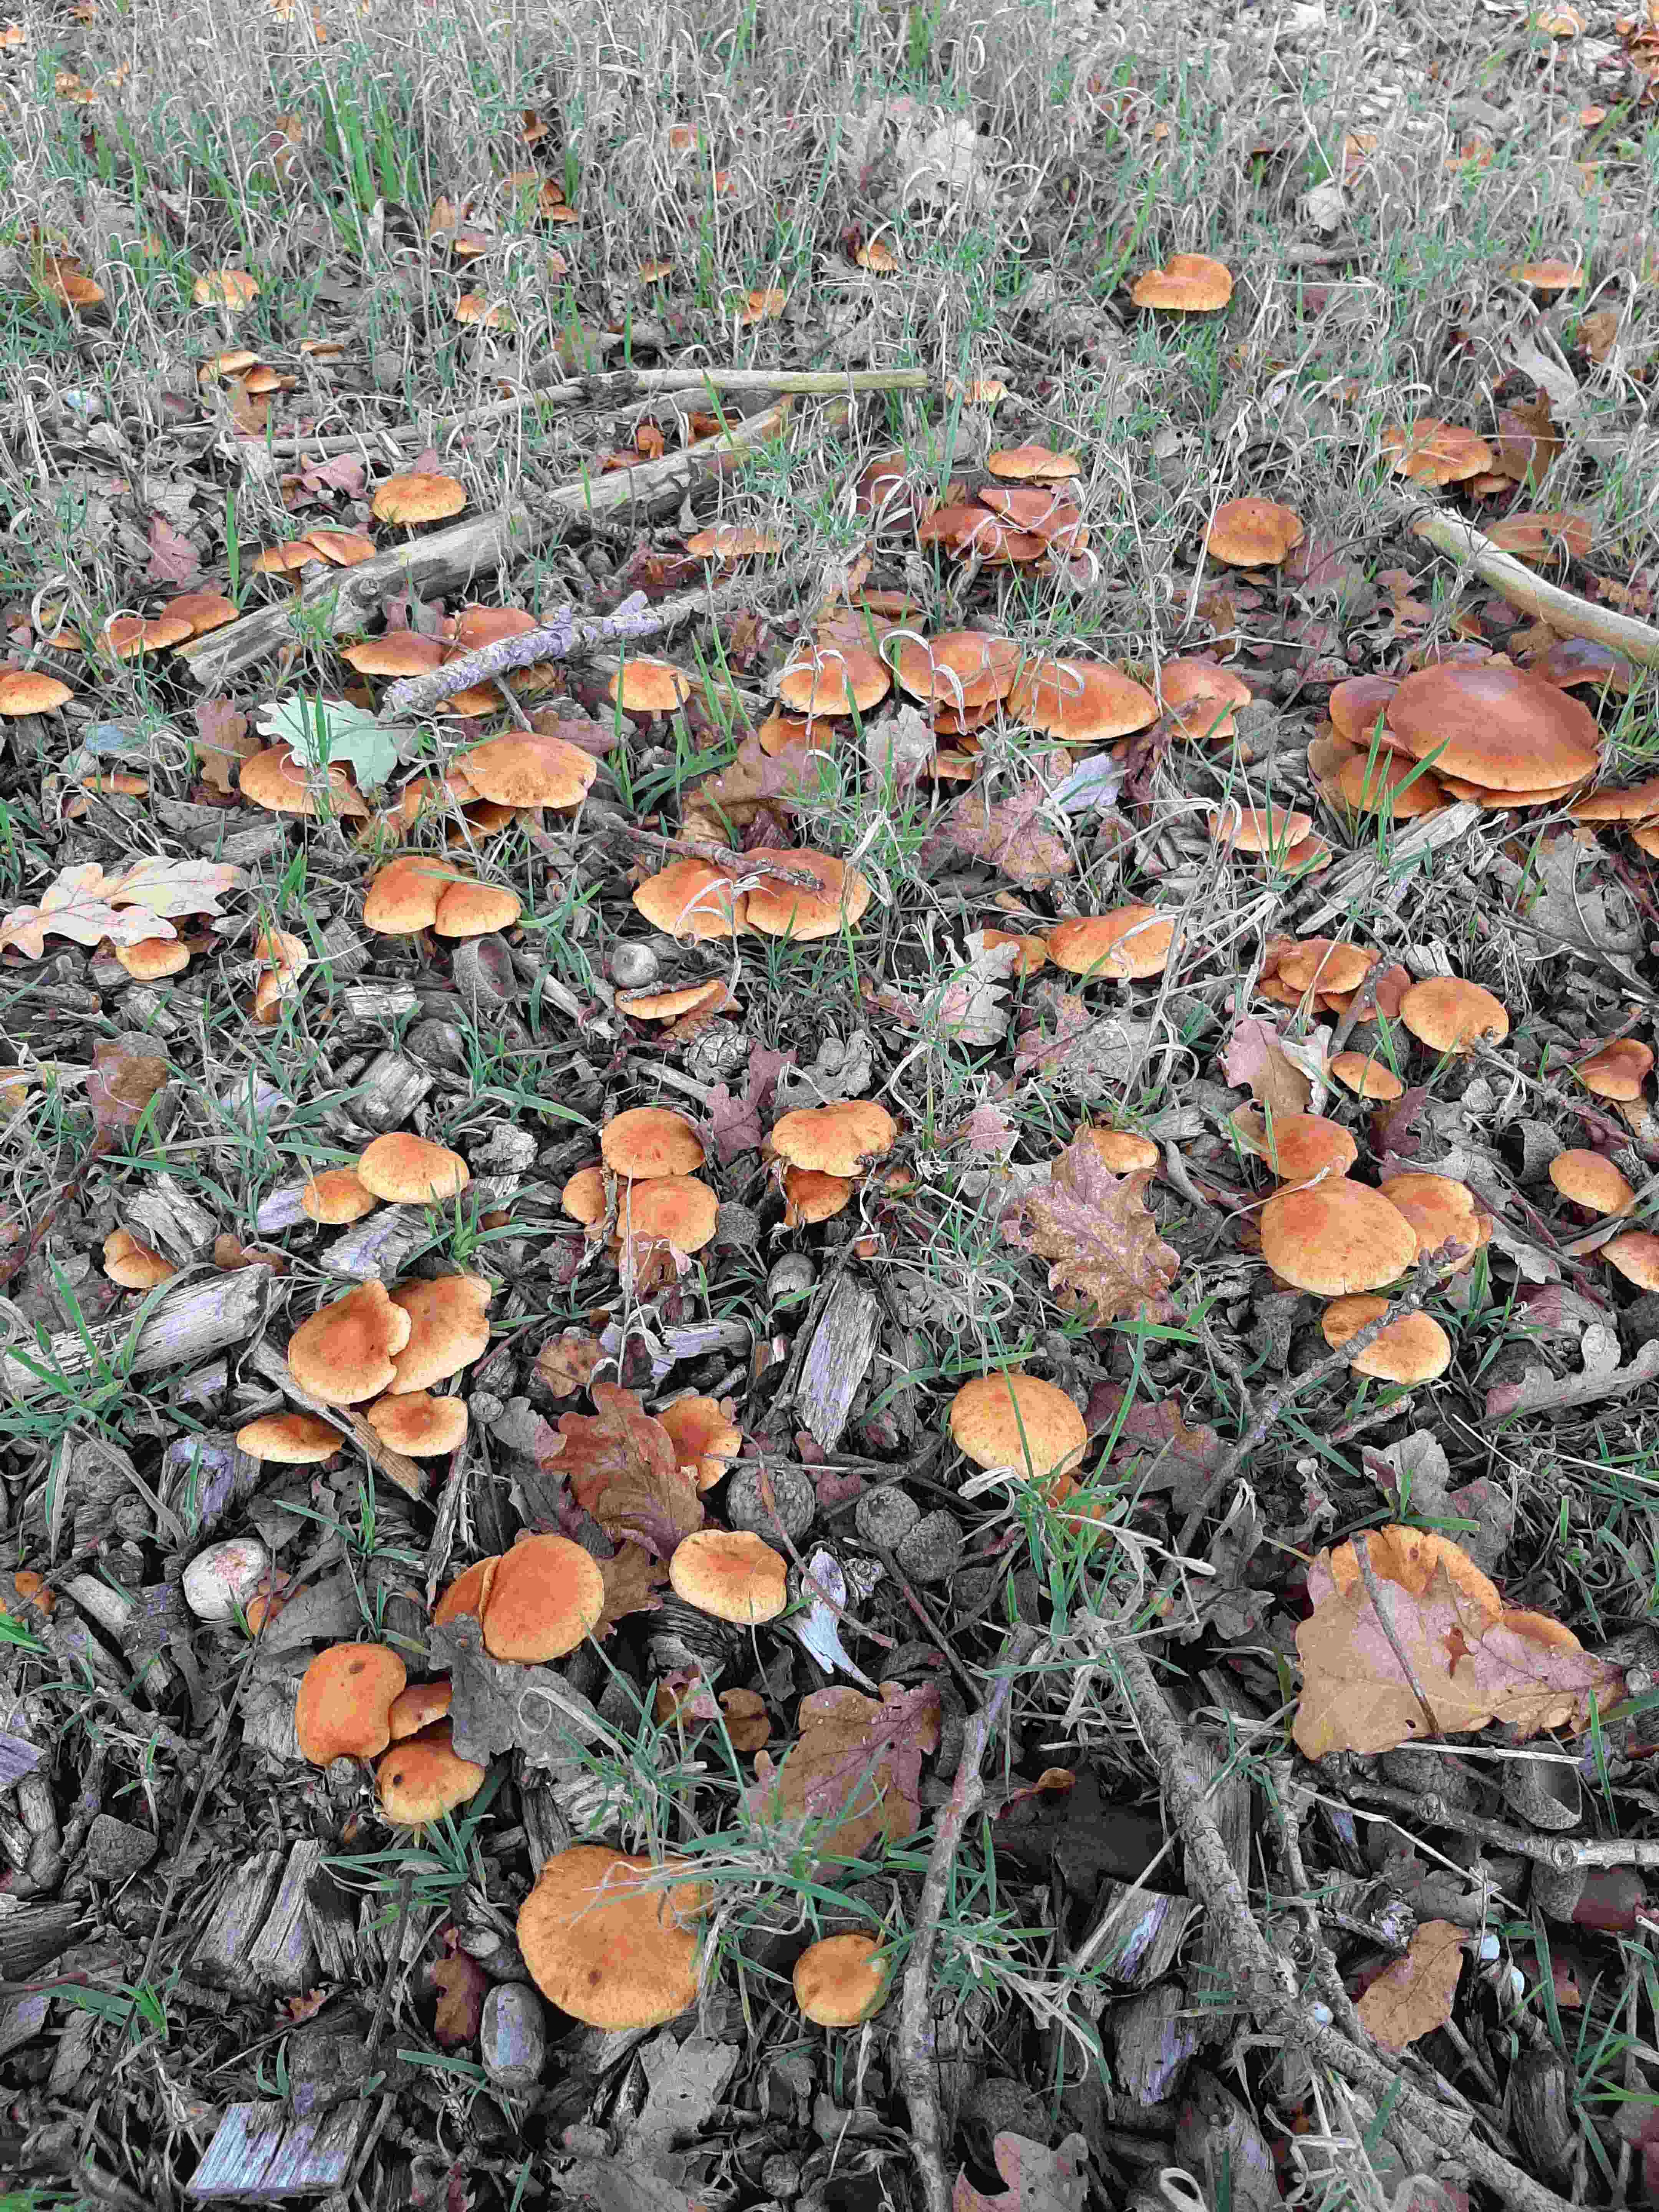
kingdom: Fungi
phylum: Basidiomycota
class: Agaricomycetes
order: Agaricales
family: Hymenogastraceae
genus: Gymnopilus
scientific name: Gymnopilus penetrans
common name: plettet flammehat
